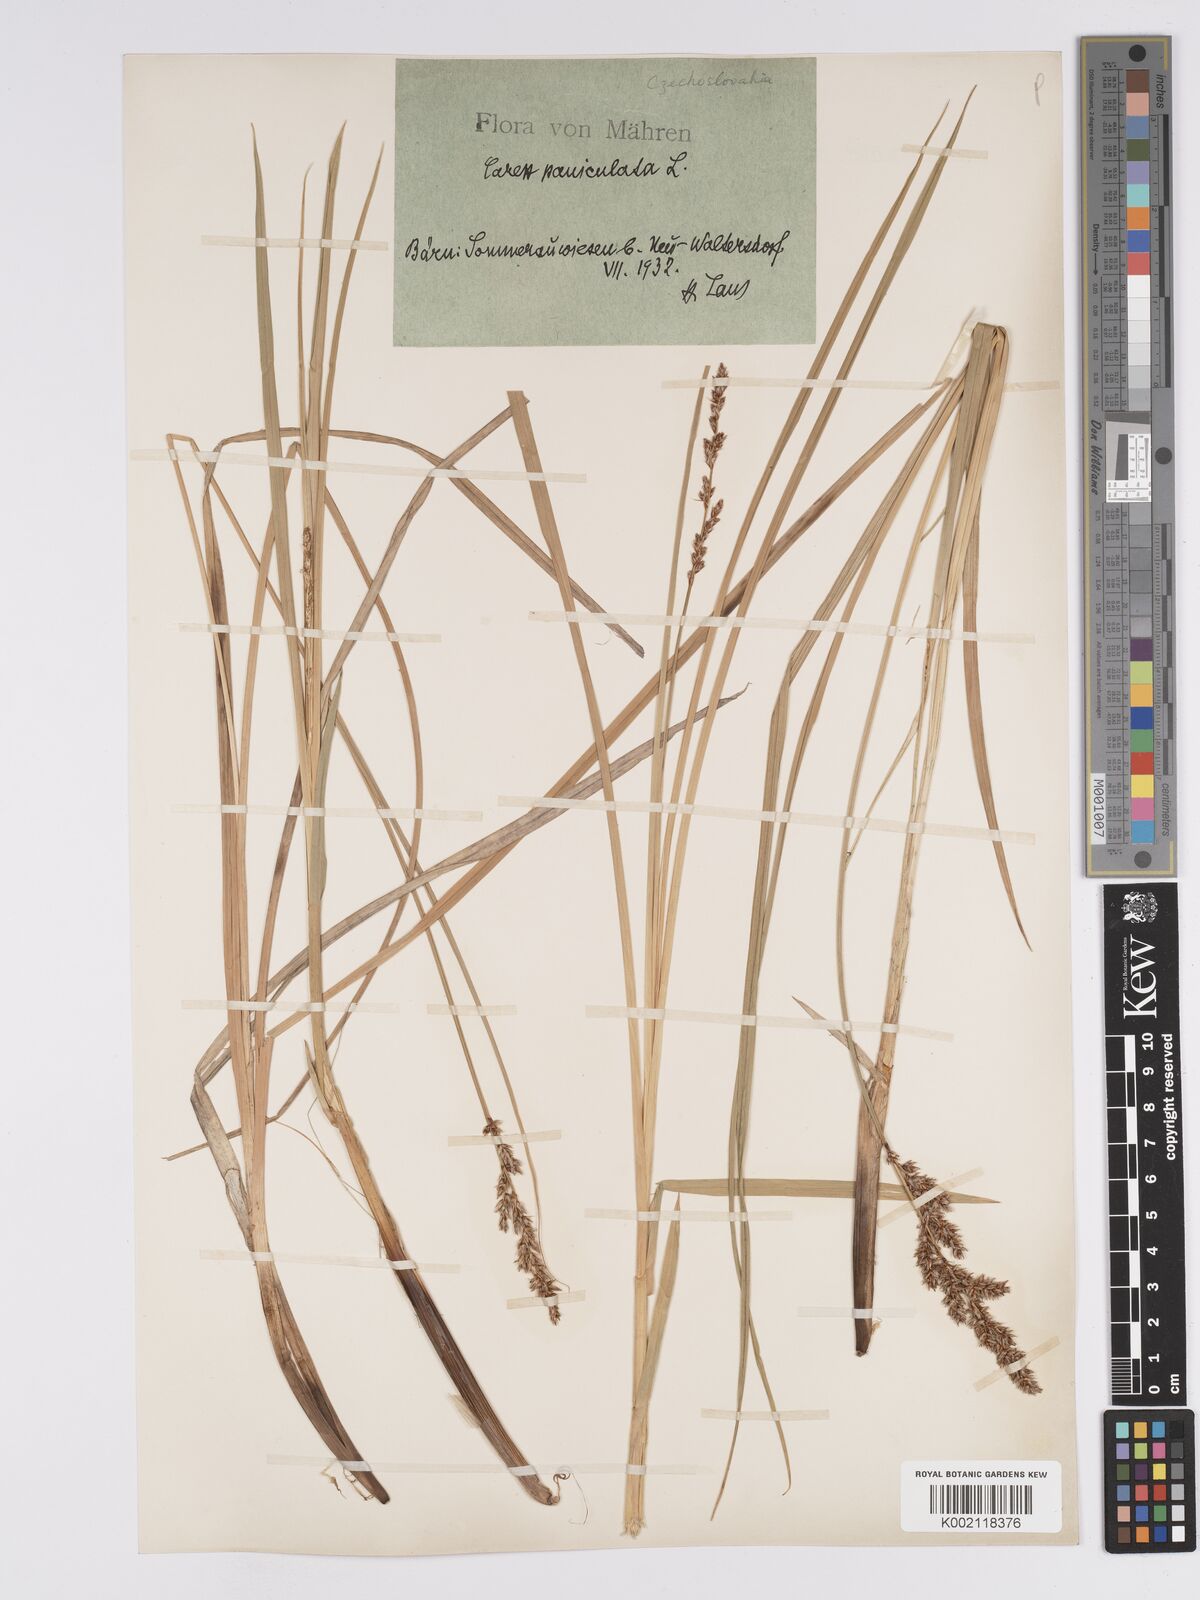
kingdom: Plantae
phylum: Tracheophyta
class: Liliopsida
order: Poales
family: Cyperaceae
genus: Carex
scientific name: Carex paniculata
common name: Greater tussock-sedge
